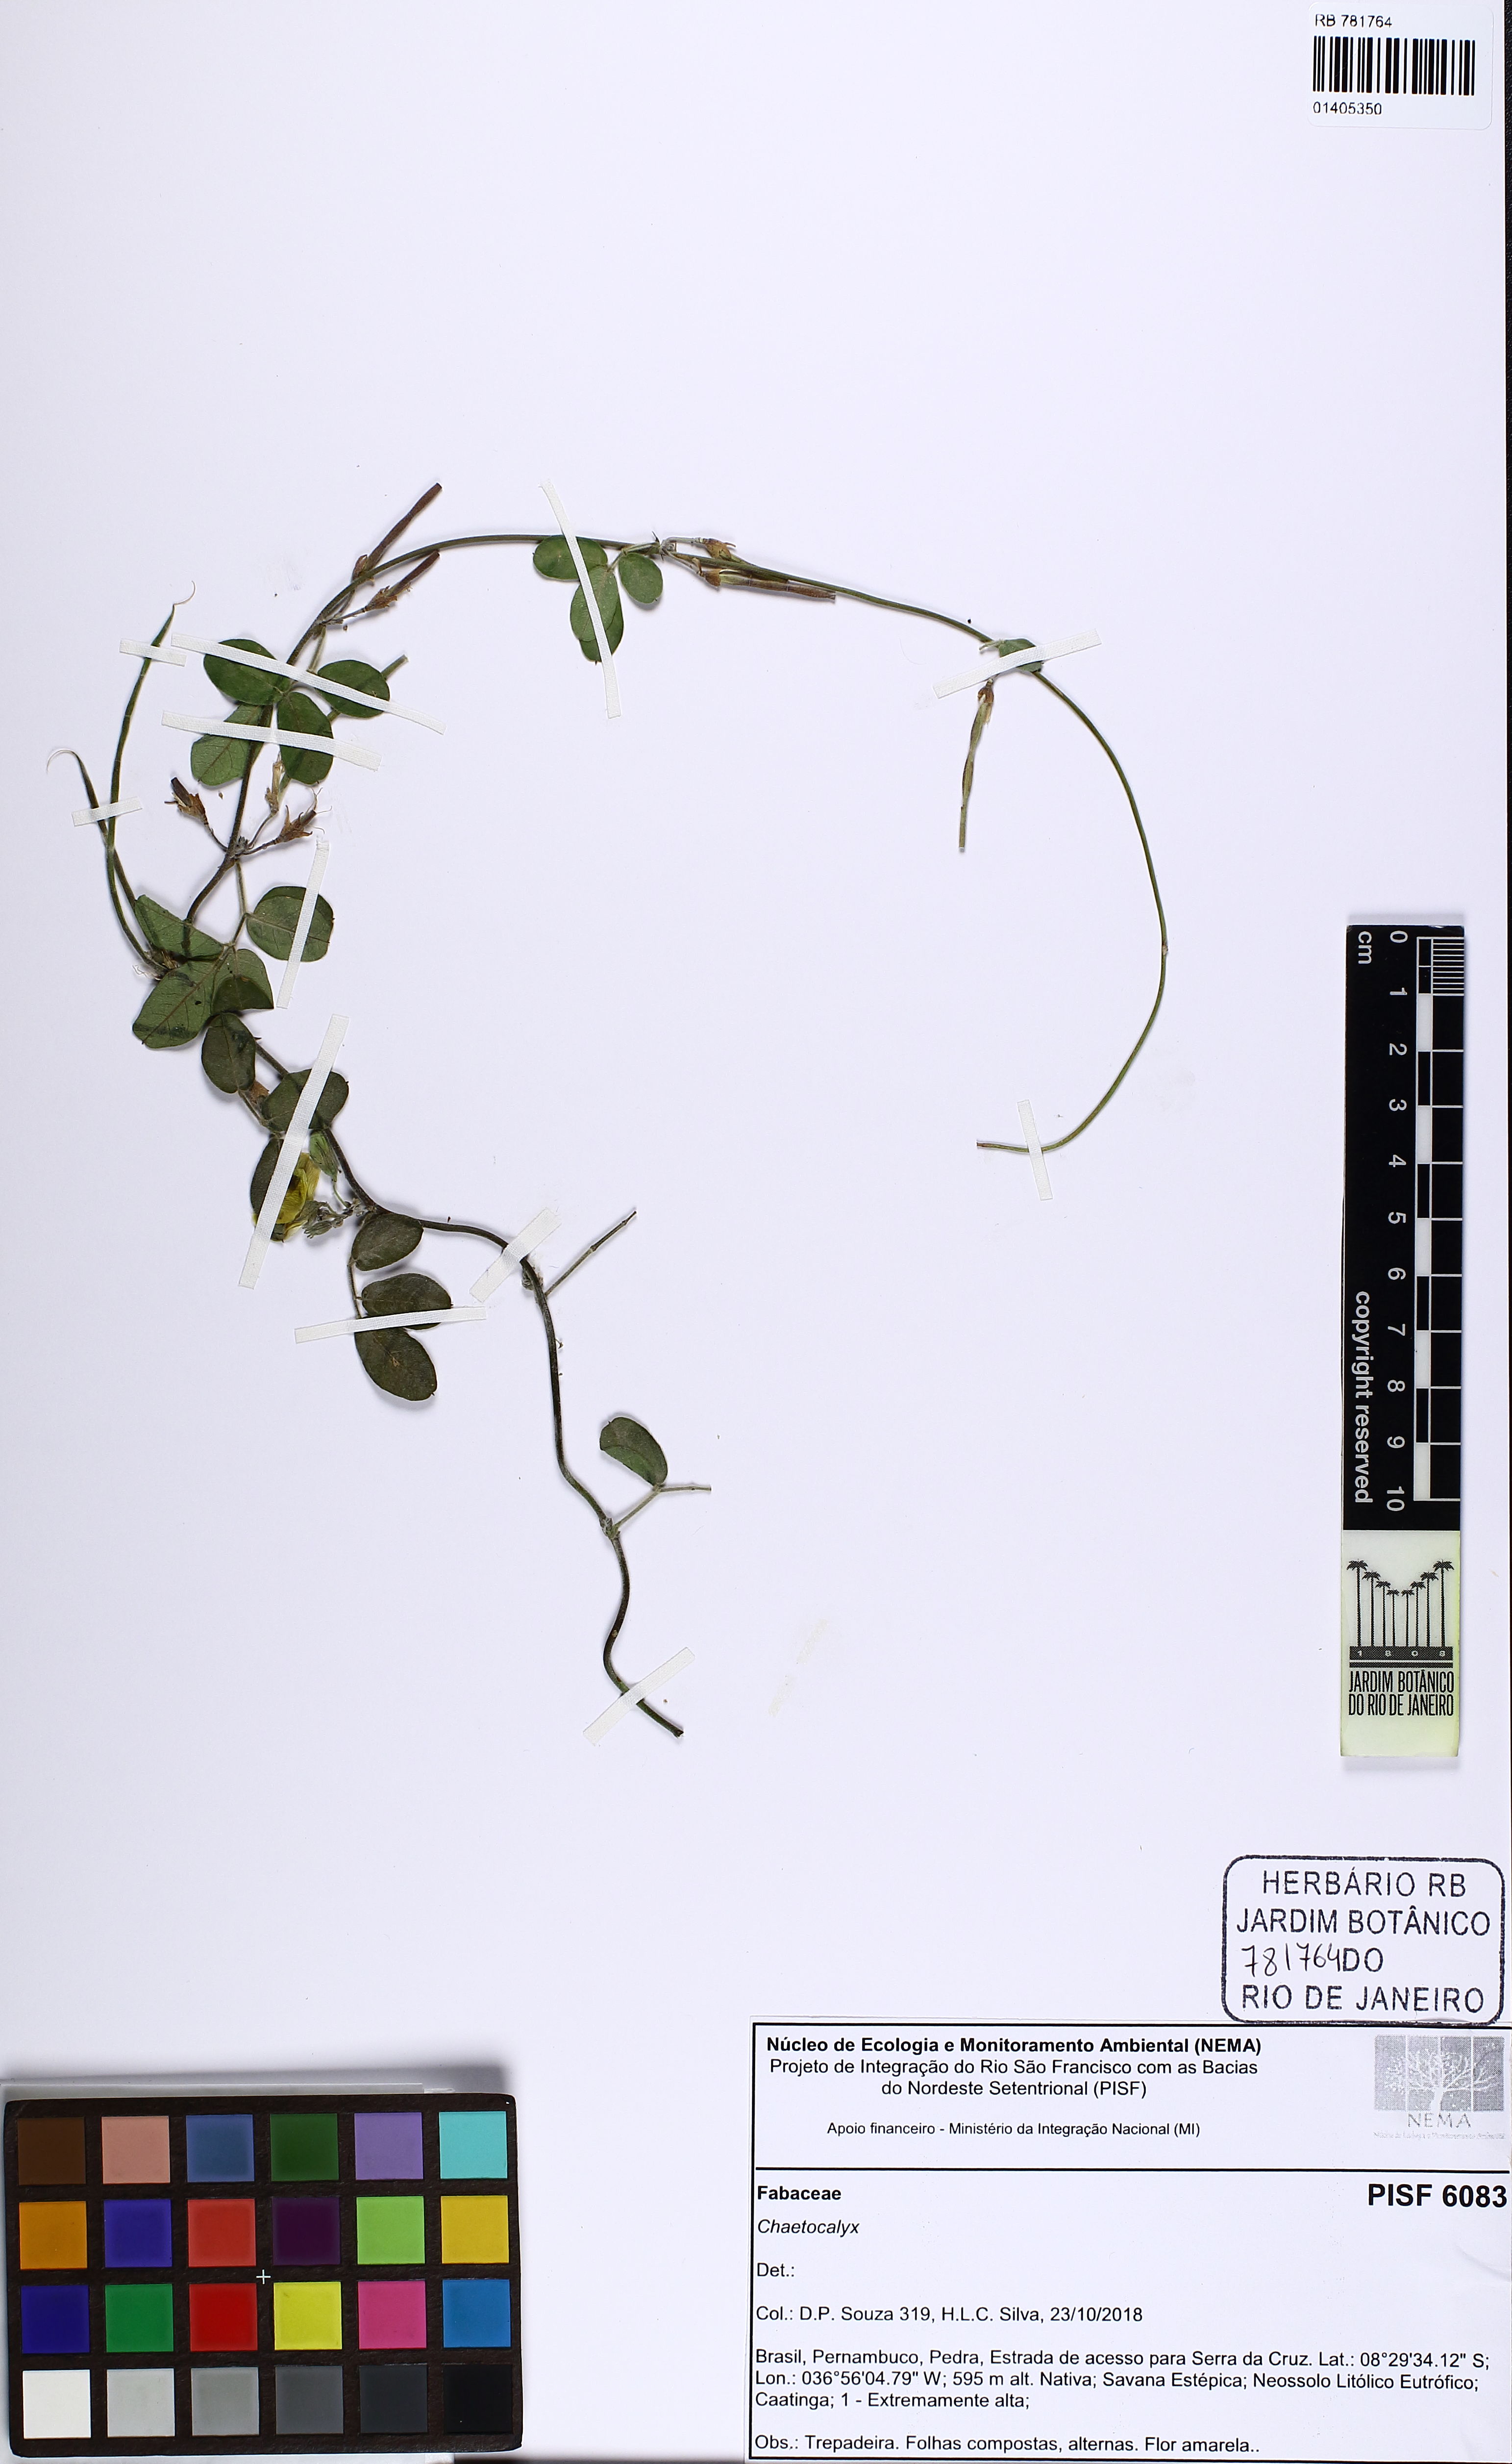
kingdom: Plantae
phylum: Tracheophyta
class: Magnoliopsida
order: Fabales
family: Fabaceae
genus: Nissolia
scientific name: Nissolia vincentina
